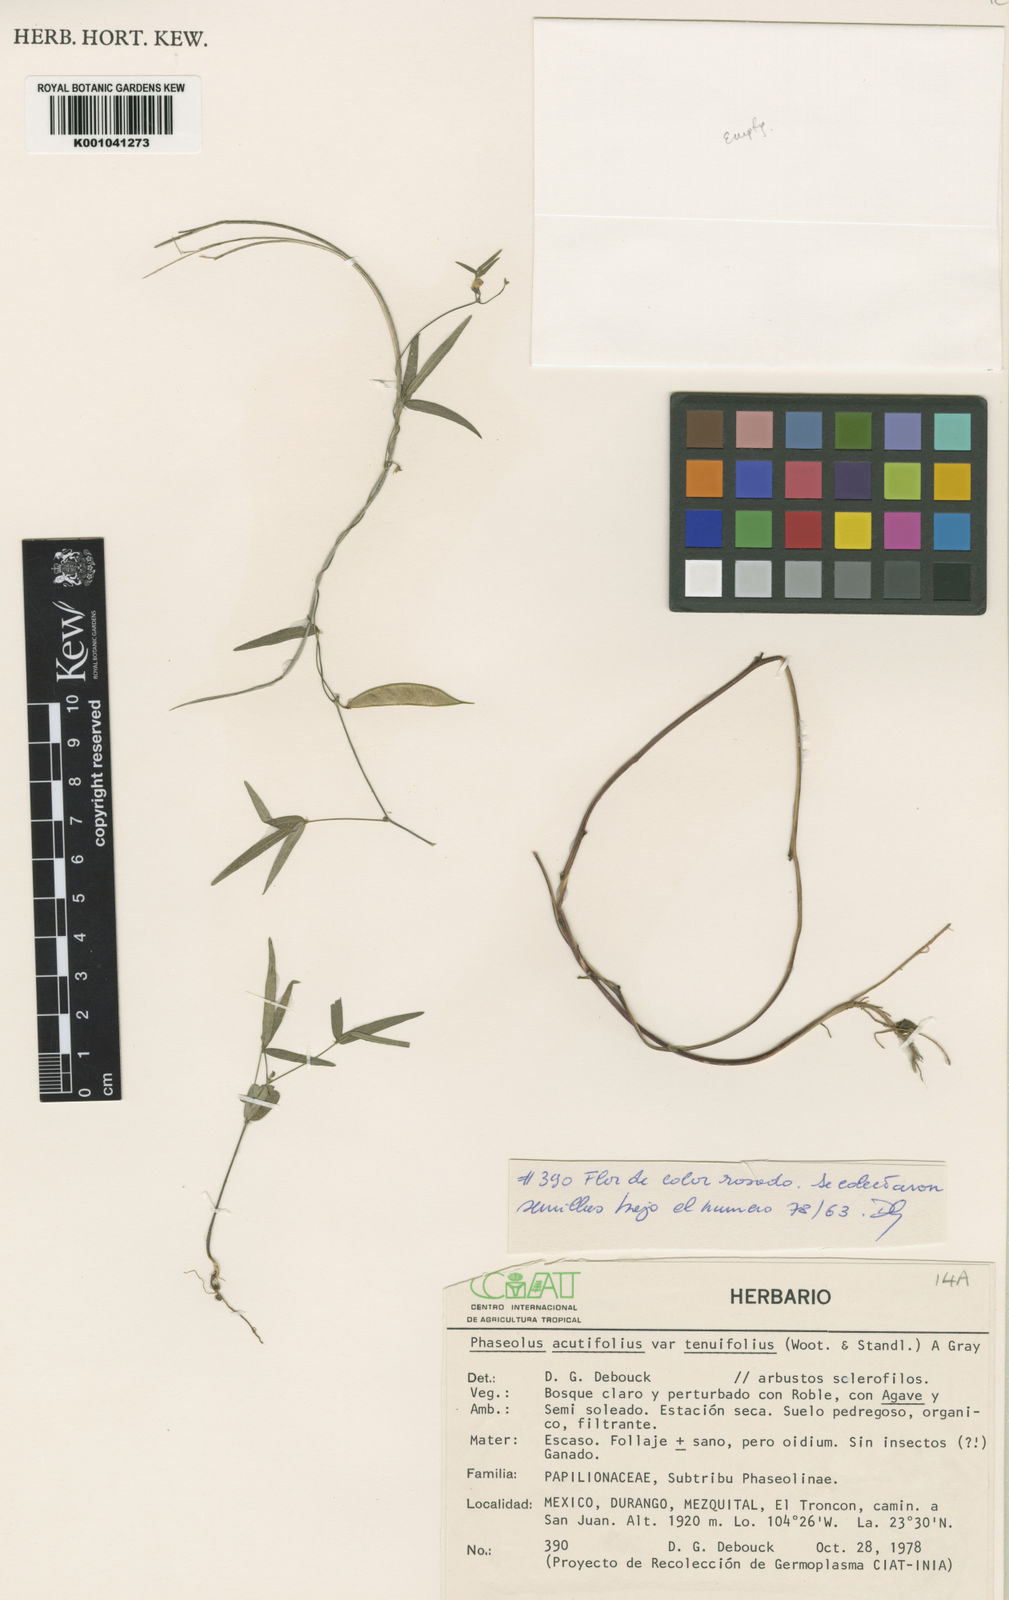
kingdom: Plantae
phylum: Tracheophyta
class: Magnoliopsida
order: Fabales
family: Fabaceae
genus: Phaseolus
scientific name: Phaseolus acutifolius
